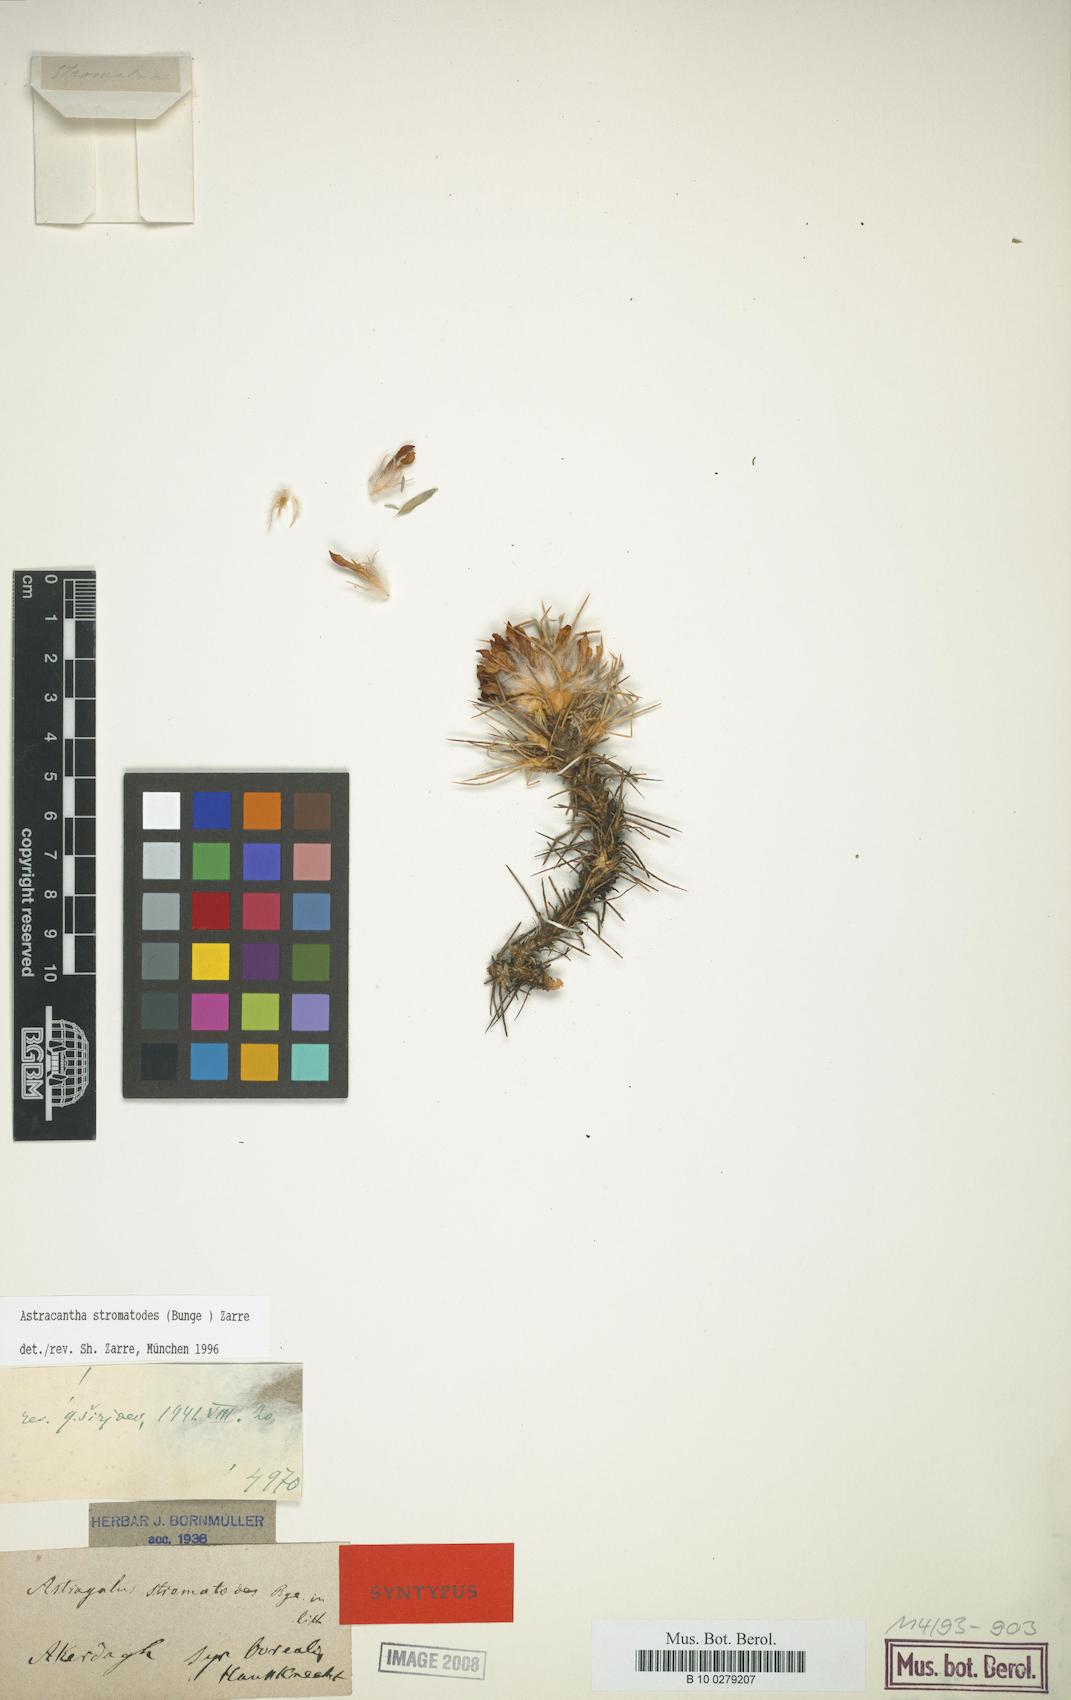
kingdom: Chromista
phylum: Cercozoa
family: Astracanthidae
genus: Astracantha
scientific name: Astracantha
